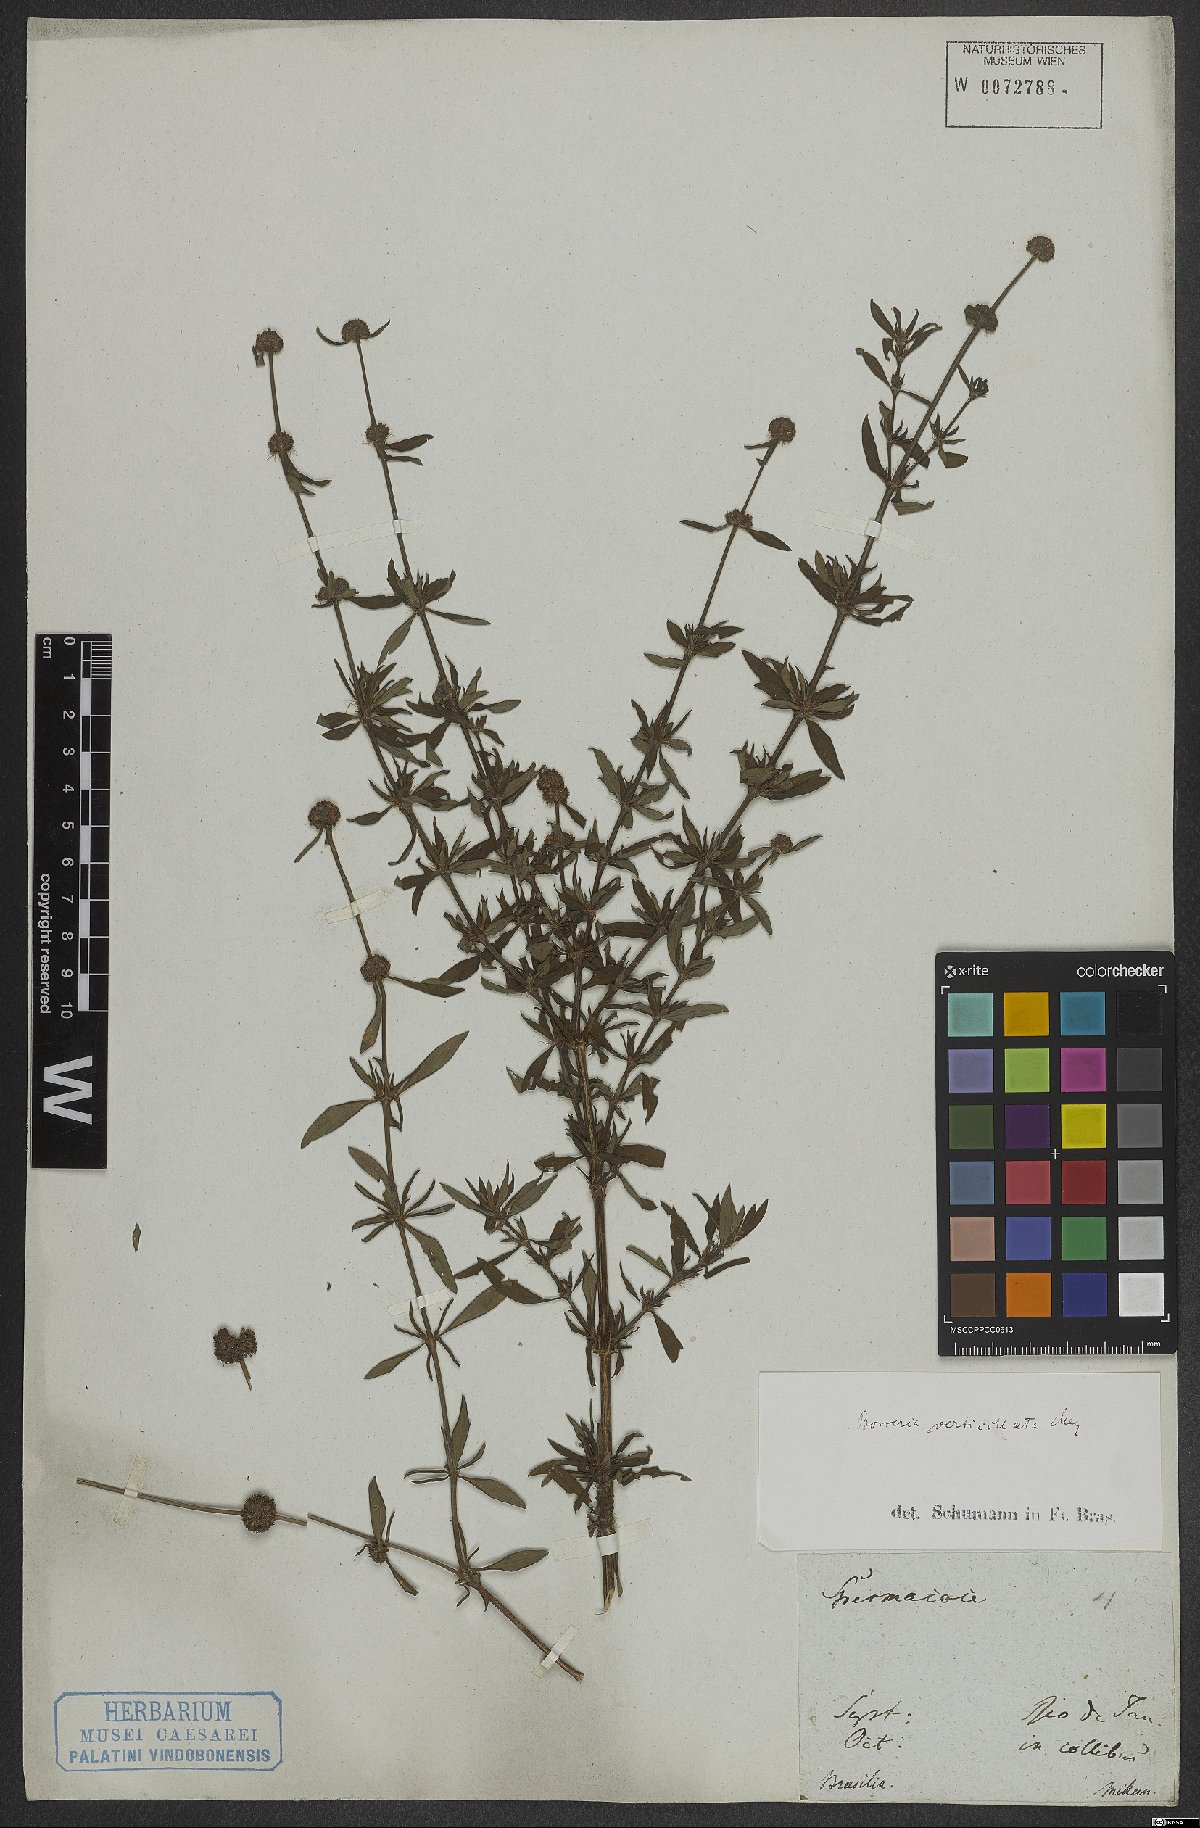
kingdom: Plantae
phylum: Tracheophyta
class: Magnoliopsida
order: Gentianales
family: Rubiaceae
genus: Spermacoce
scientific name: Spermacoce verticillata
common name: Shrubby false buttonweed
